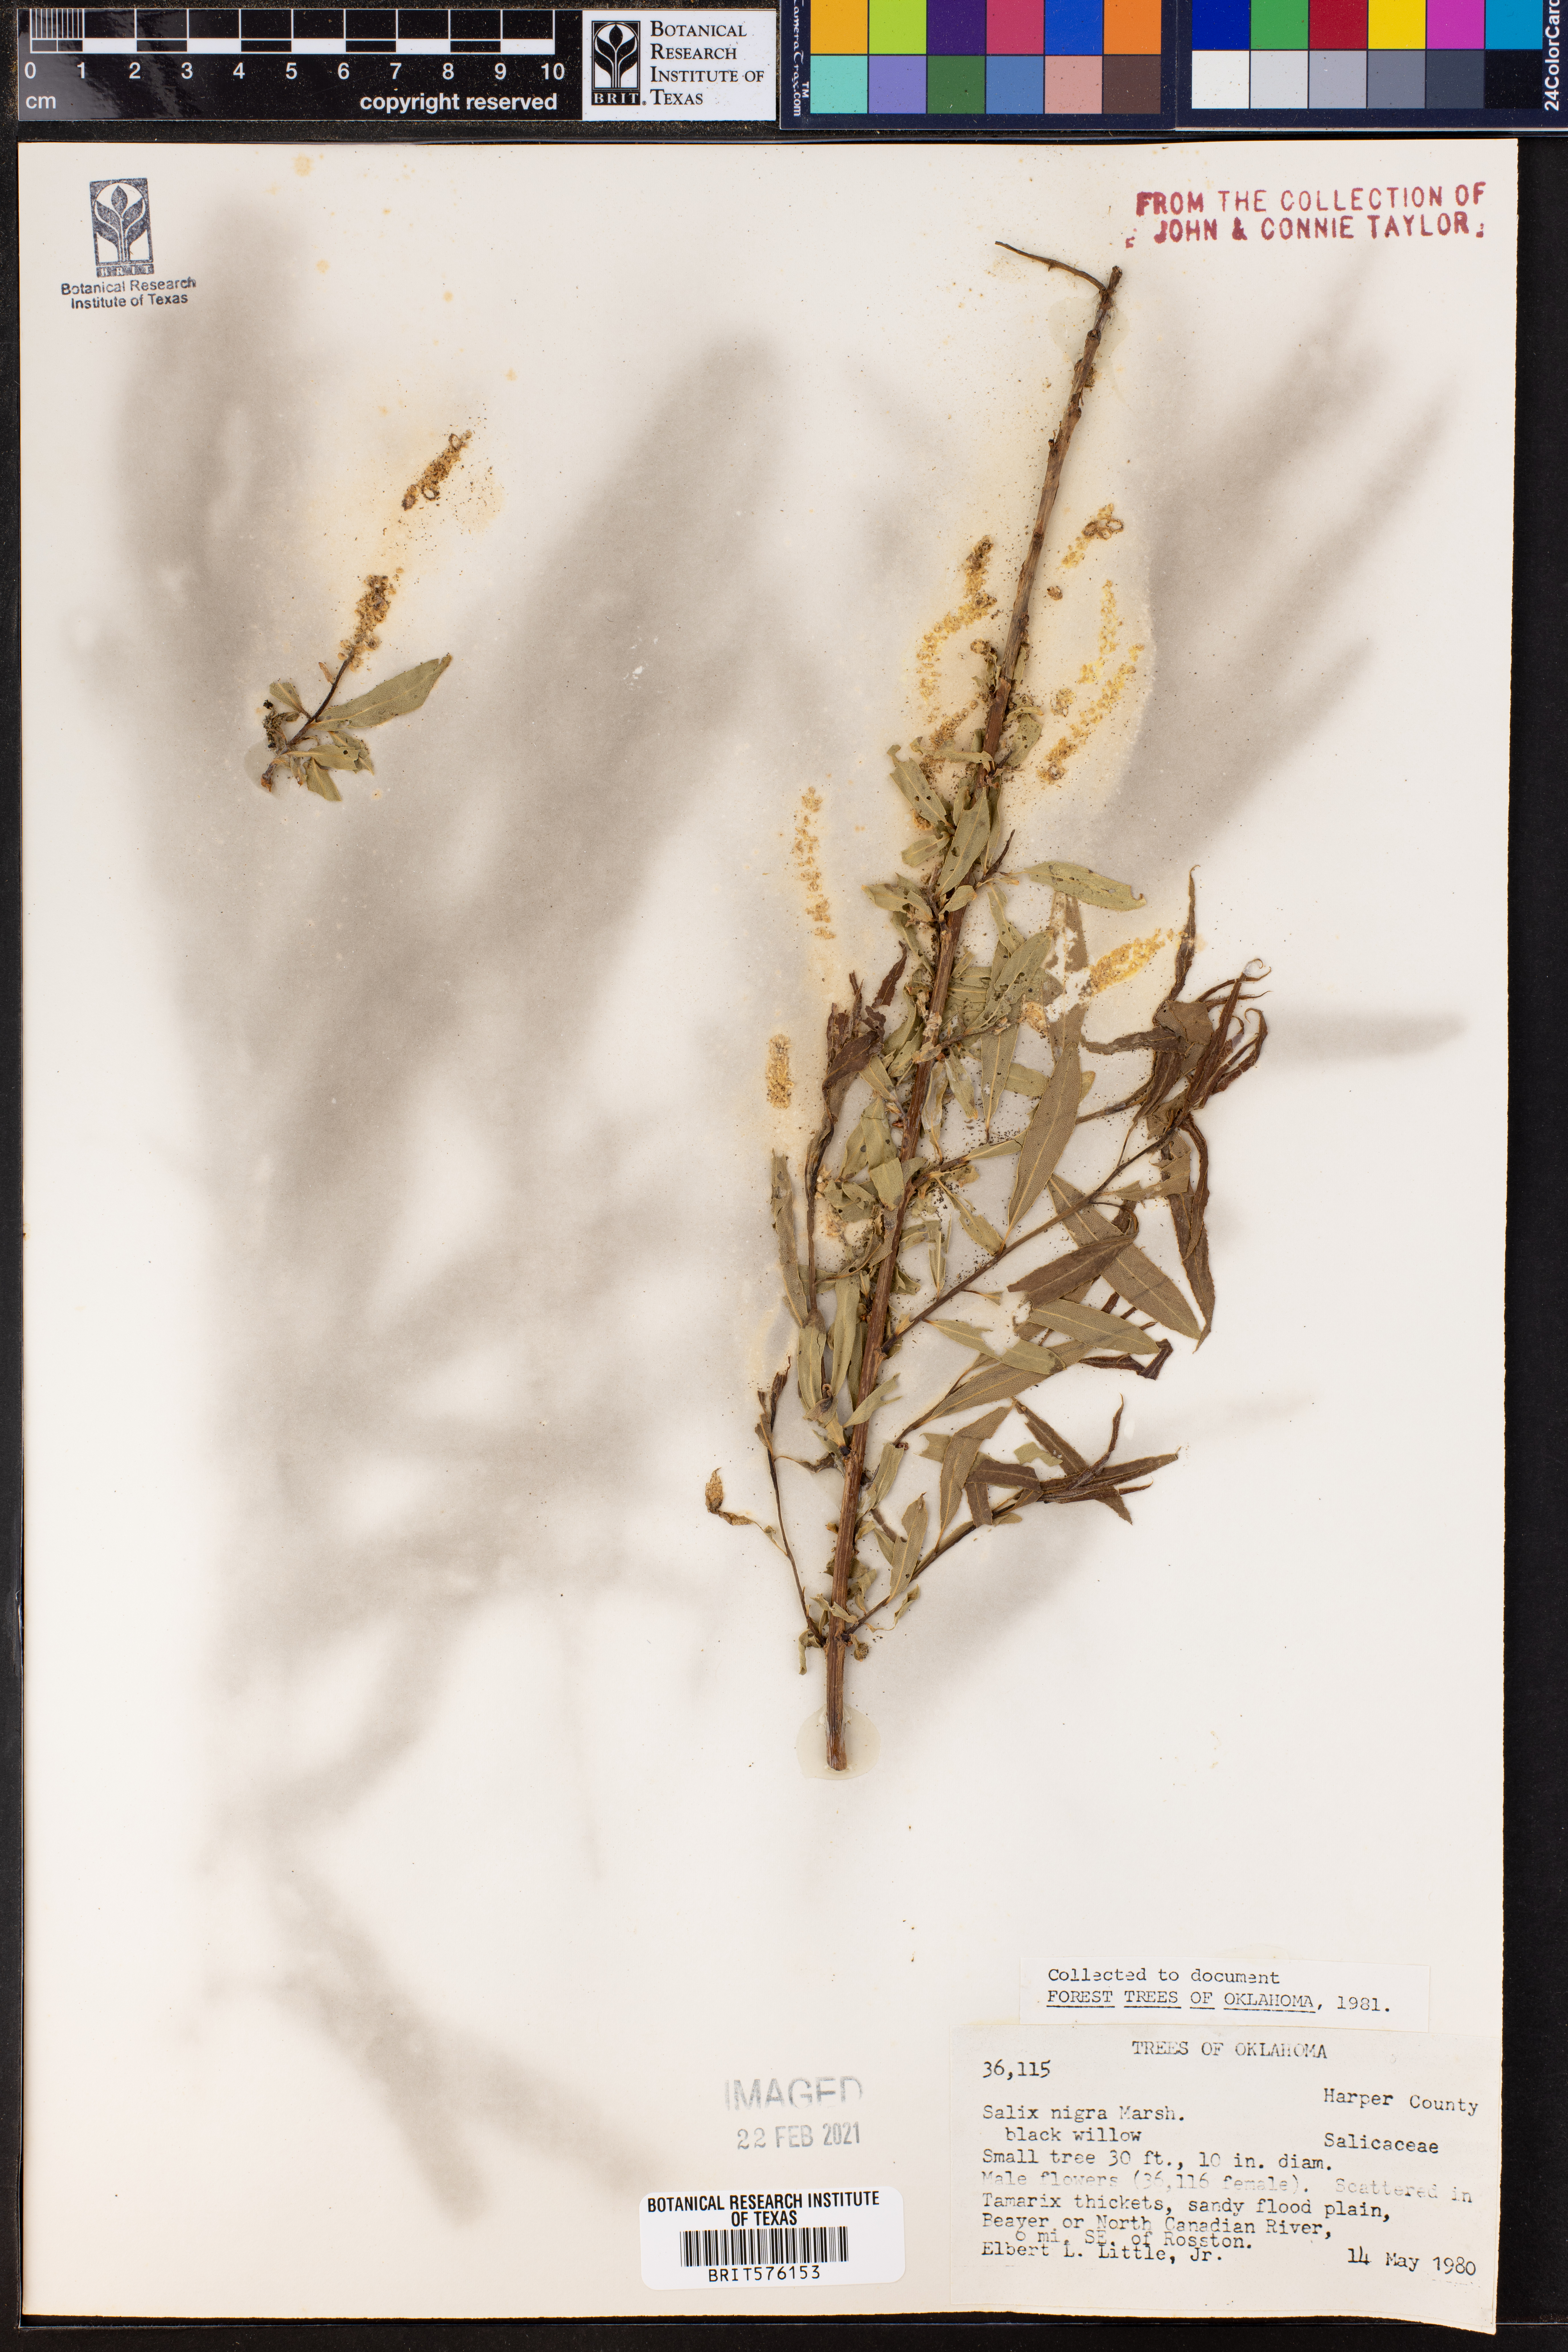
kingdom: Plantae
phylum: Tracheophyta
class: Magnoliopsida
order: Malpighiales
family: Salicaceae
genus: Salix
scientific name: Salix nigra
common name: Black willow
